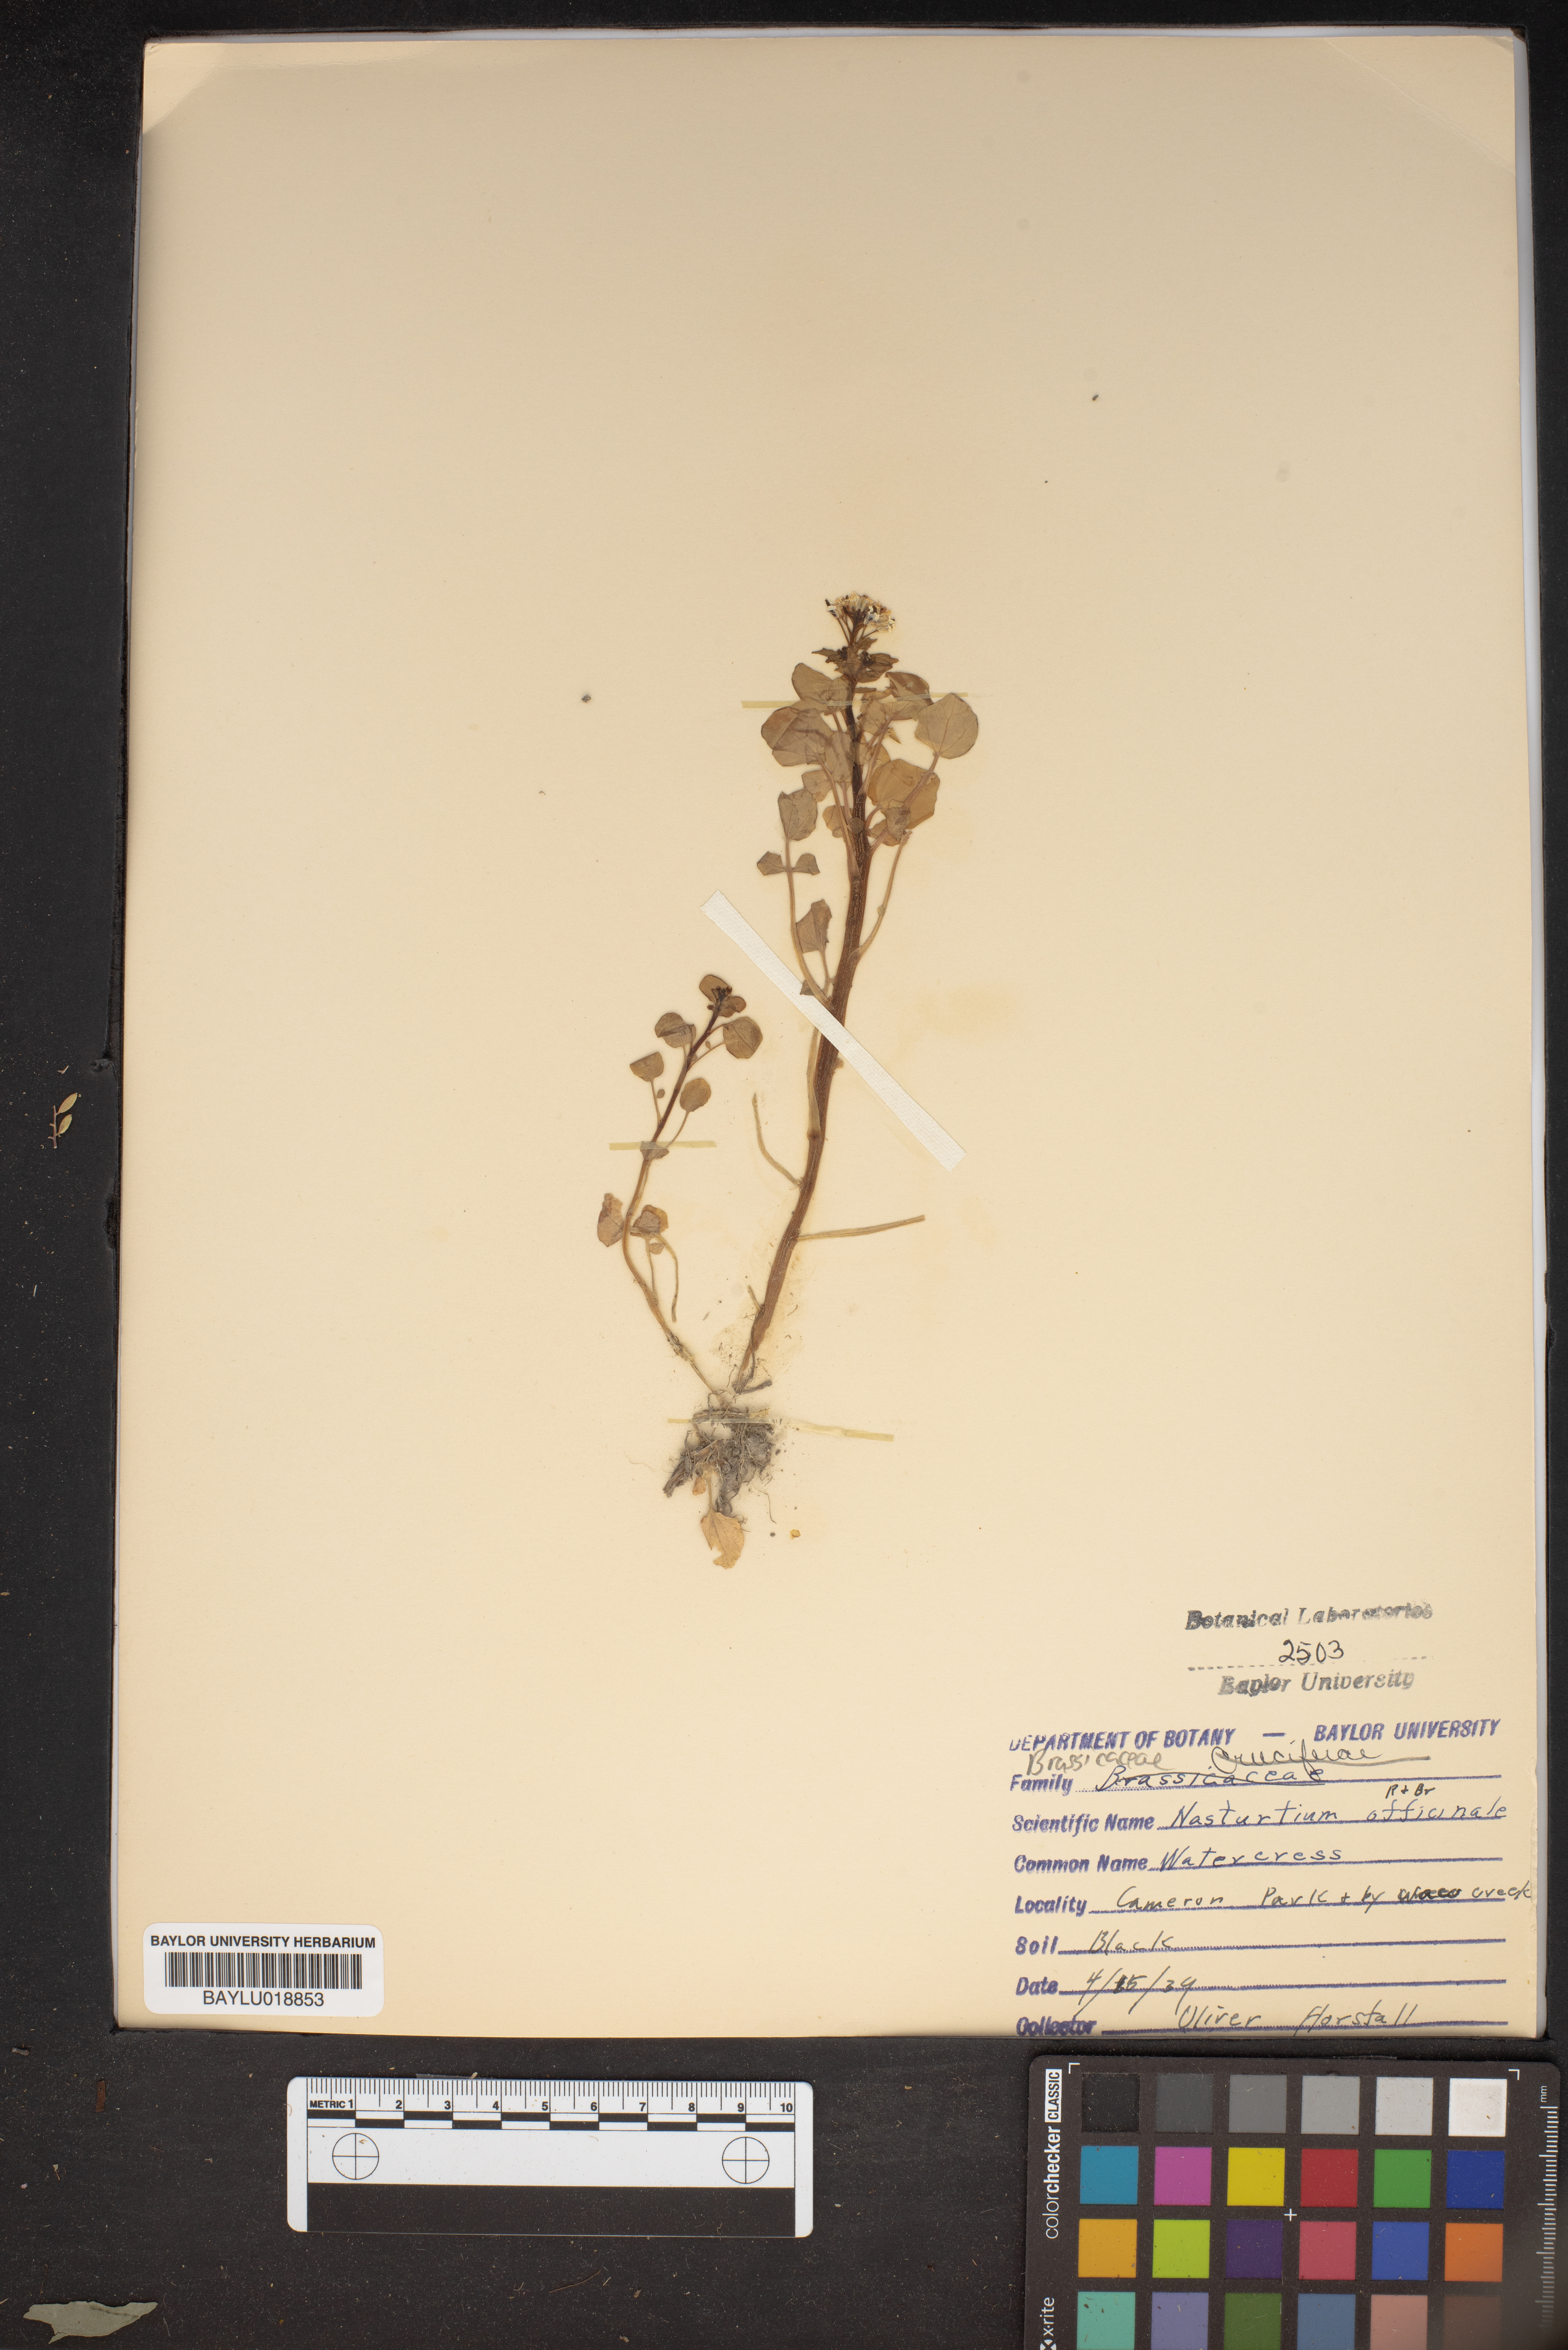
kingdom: Plantae
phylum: Tracheophyta
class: Magnoliopsida
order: Brassicales
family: Brassicaceae
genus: Nasturtium
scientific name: Nasturtium officinale
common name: Watercress
